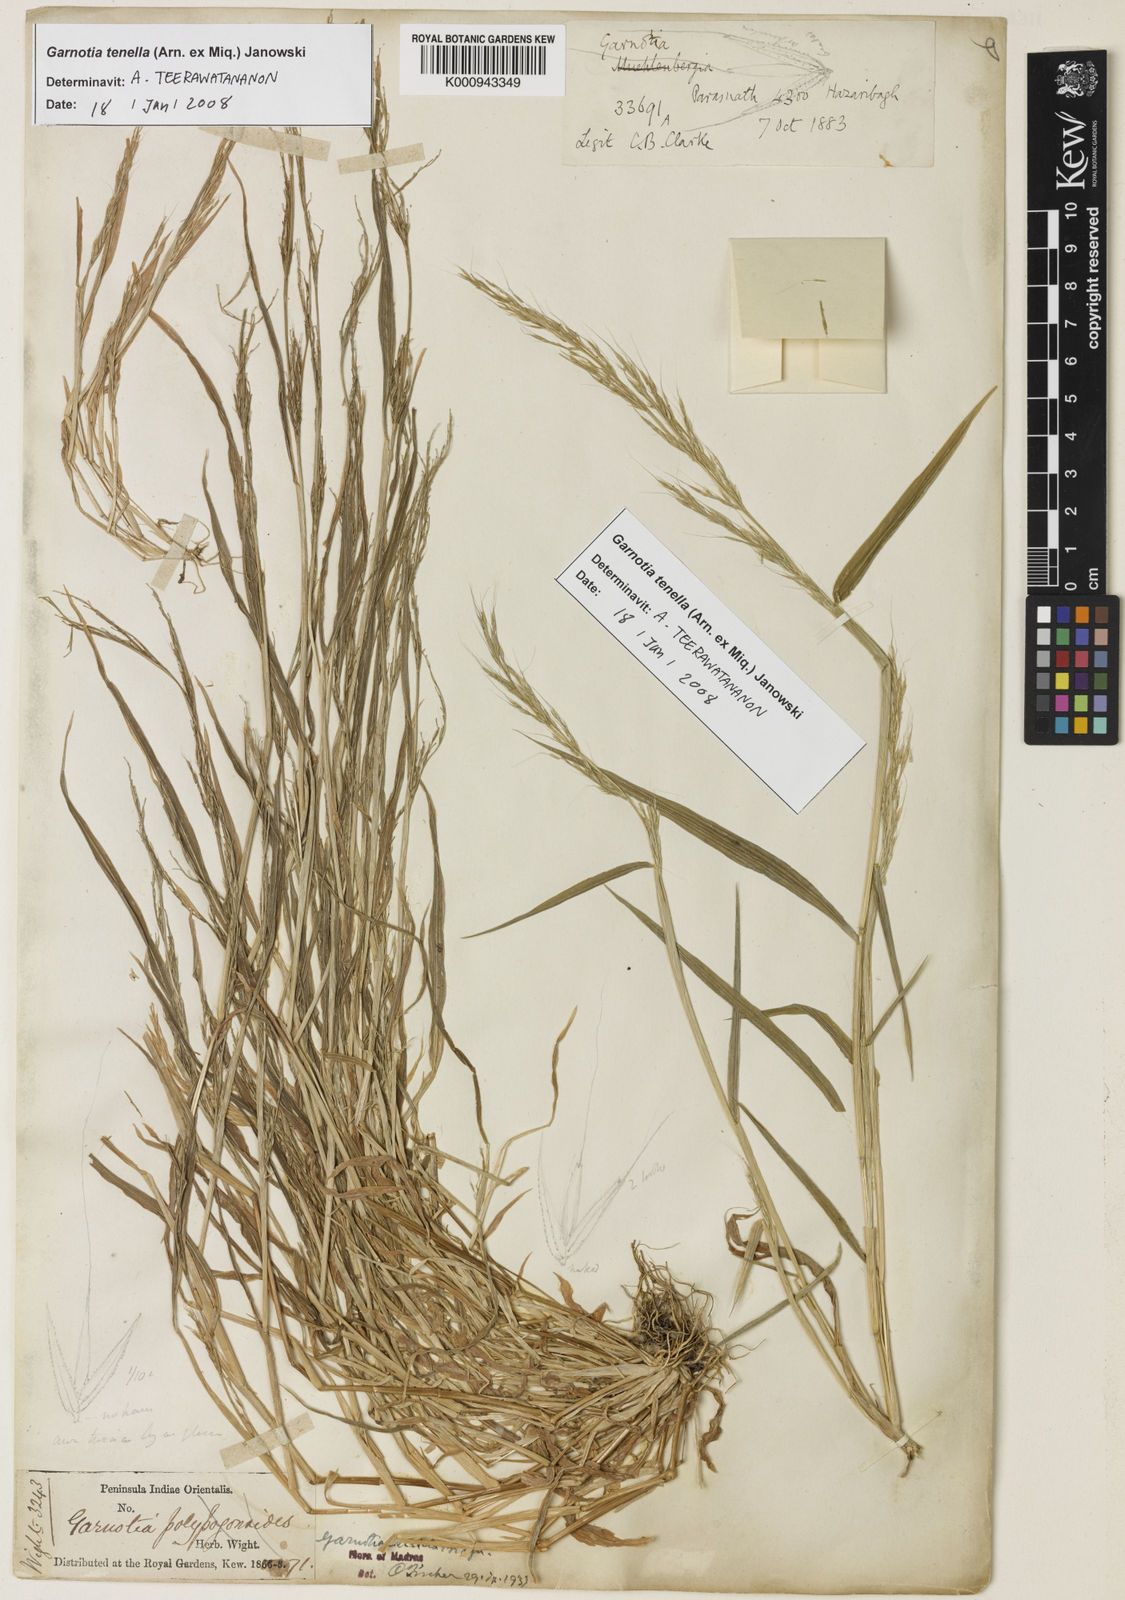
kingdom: Plantae
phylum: Tracheophyta
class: Liliopsida
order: Poales
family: Poaceae
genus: Garnotia
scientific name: Garnotia tenella
